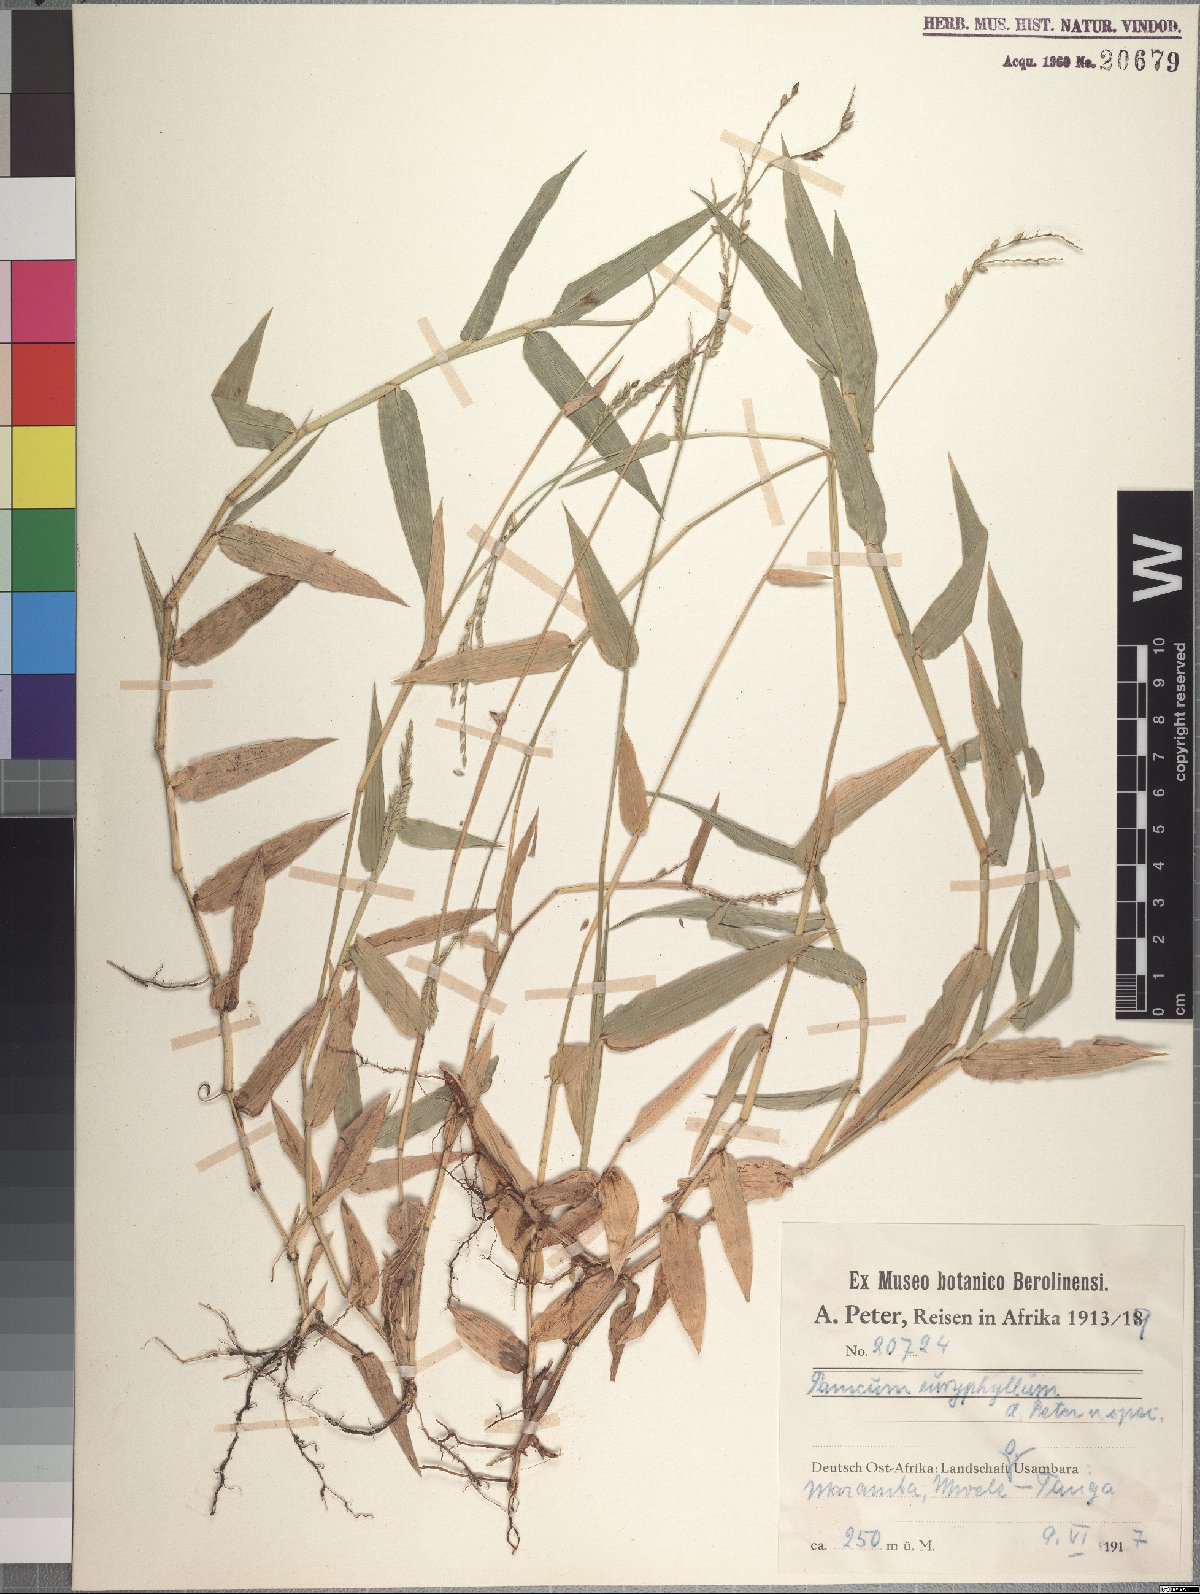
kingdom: Plantae
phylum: Tracheophyta
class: Liliopsida
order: Poales
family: Poaceae
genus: Urochloa
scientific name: Urochloa trichopodioides
